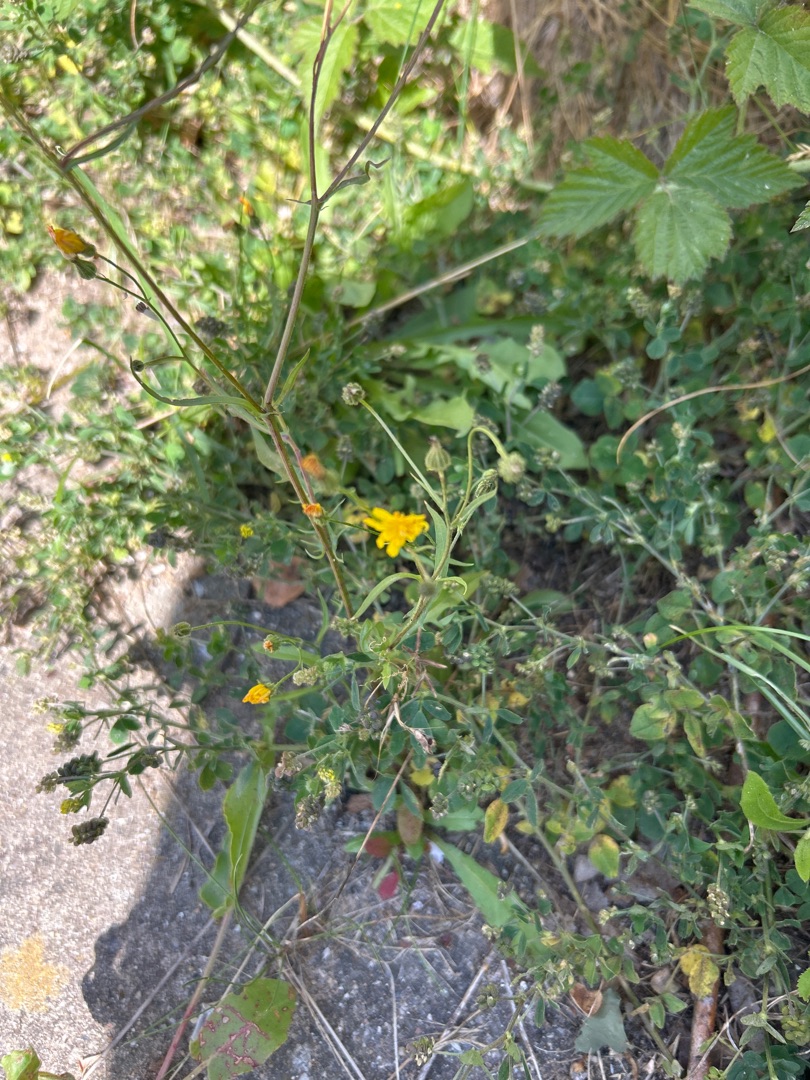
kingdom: Plantae
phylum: Tracheophyta
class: Magnoliopsida
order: Asterales
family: Asteraceae
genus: Crepis
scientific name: Crepis capillaris
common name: Grøn høgeskæg
